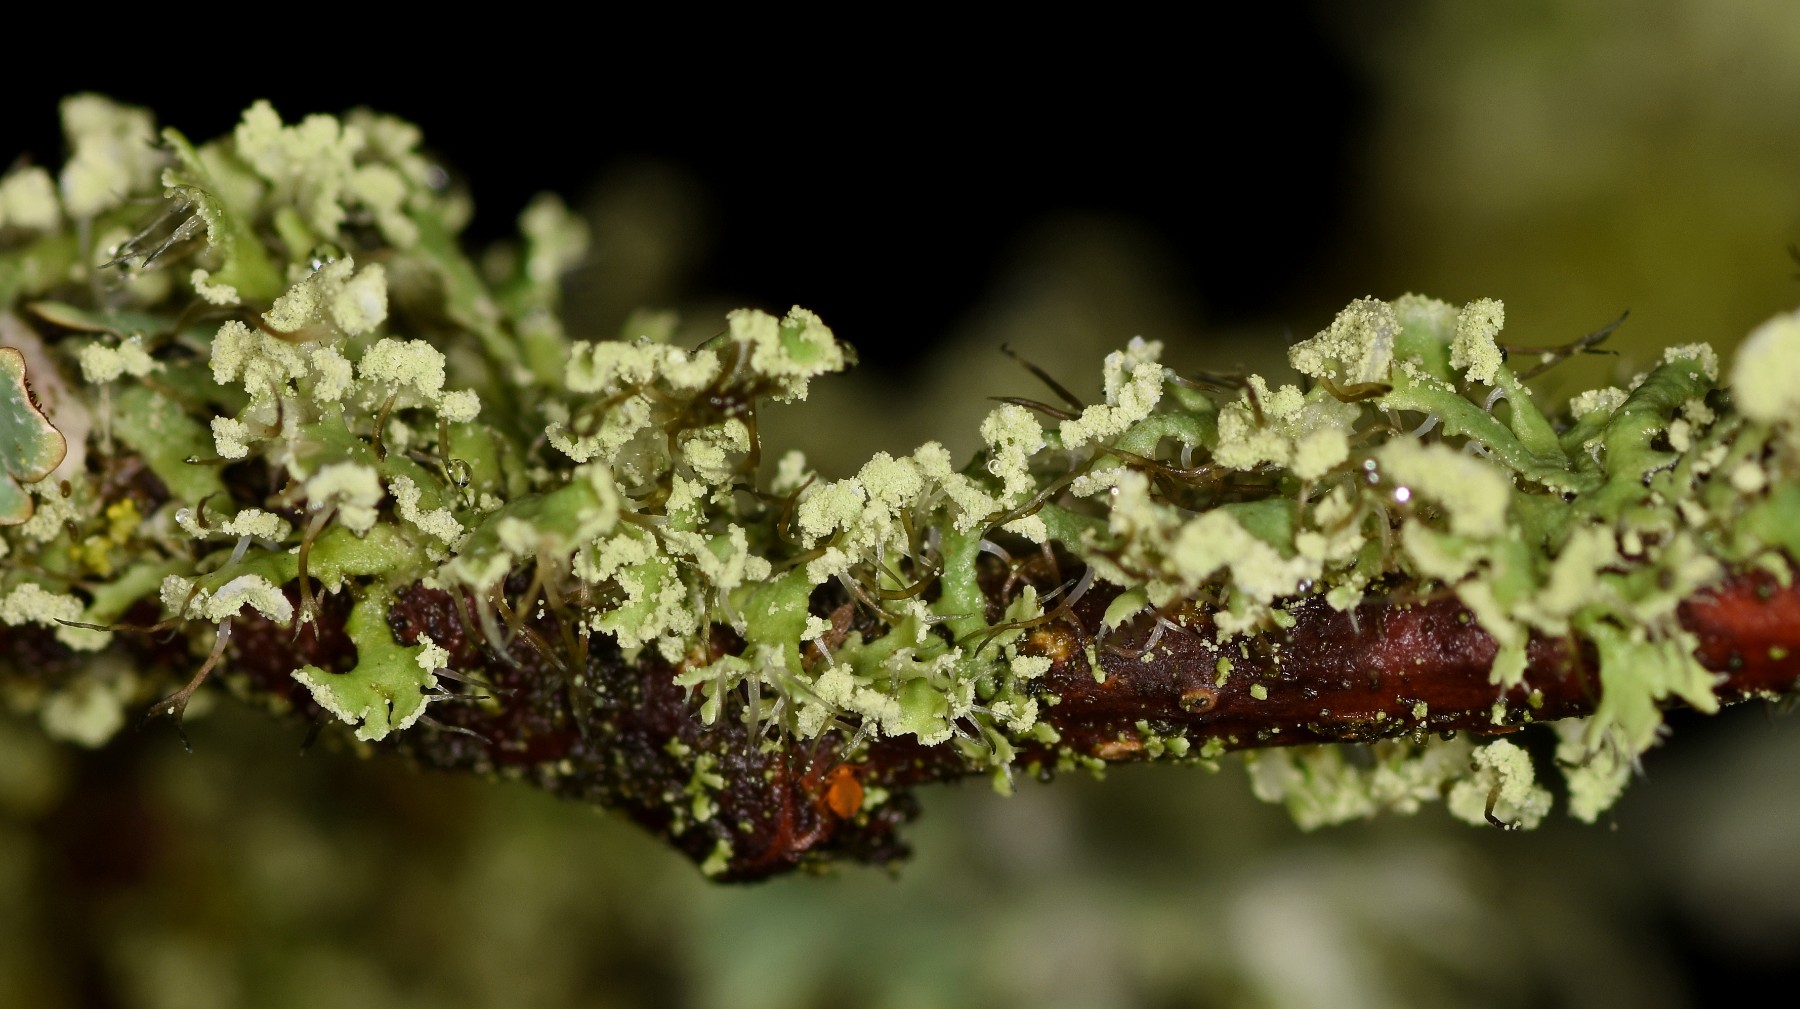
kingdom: Fungi
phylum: Ascomycota
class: Lecanoromycetes
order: Caliciales
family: Physciaceae
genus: Physcia
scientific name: Physcia tenella
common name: spæd rosetlav
